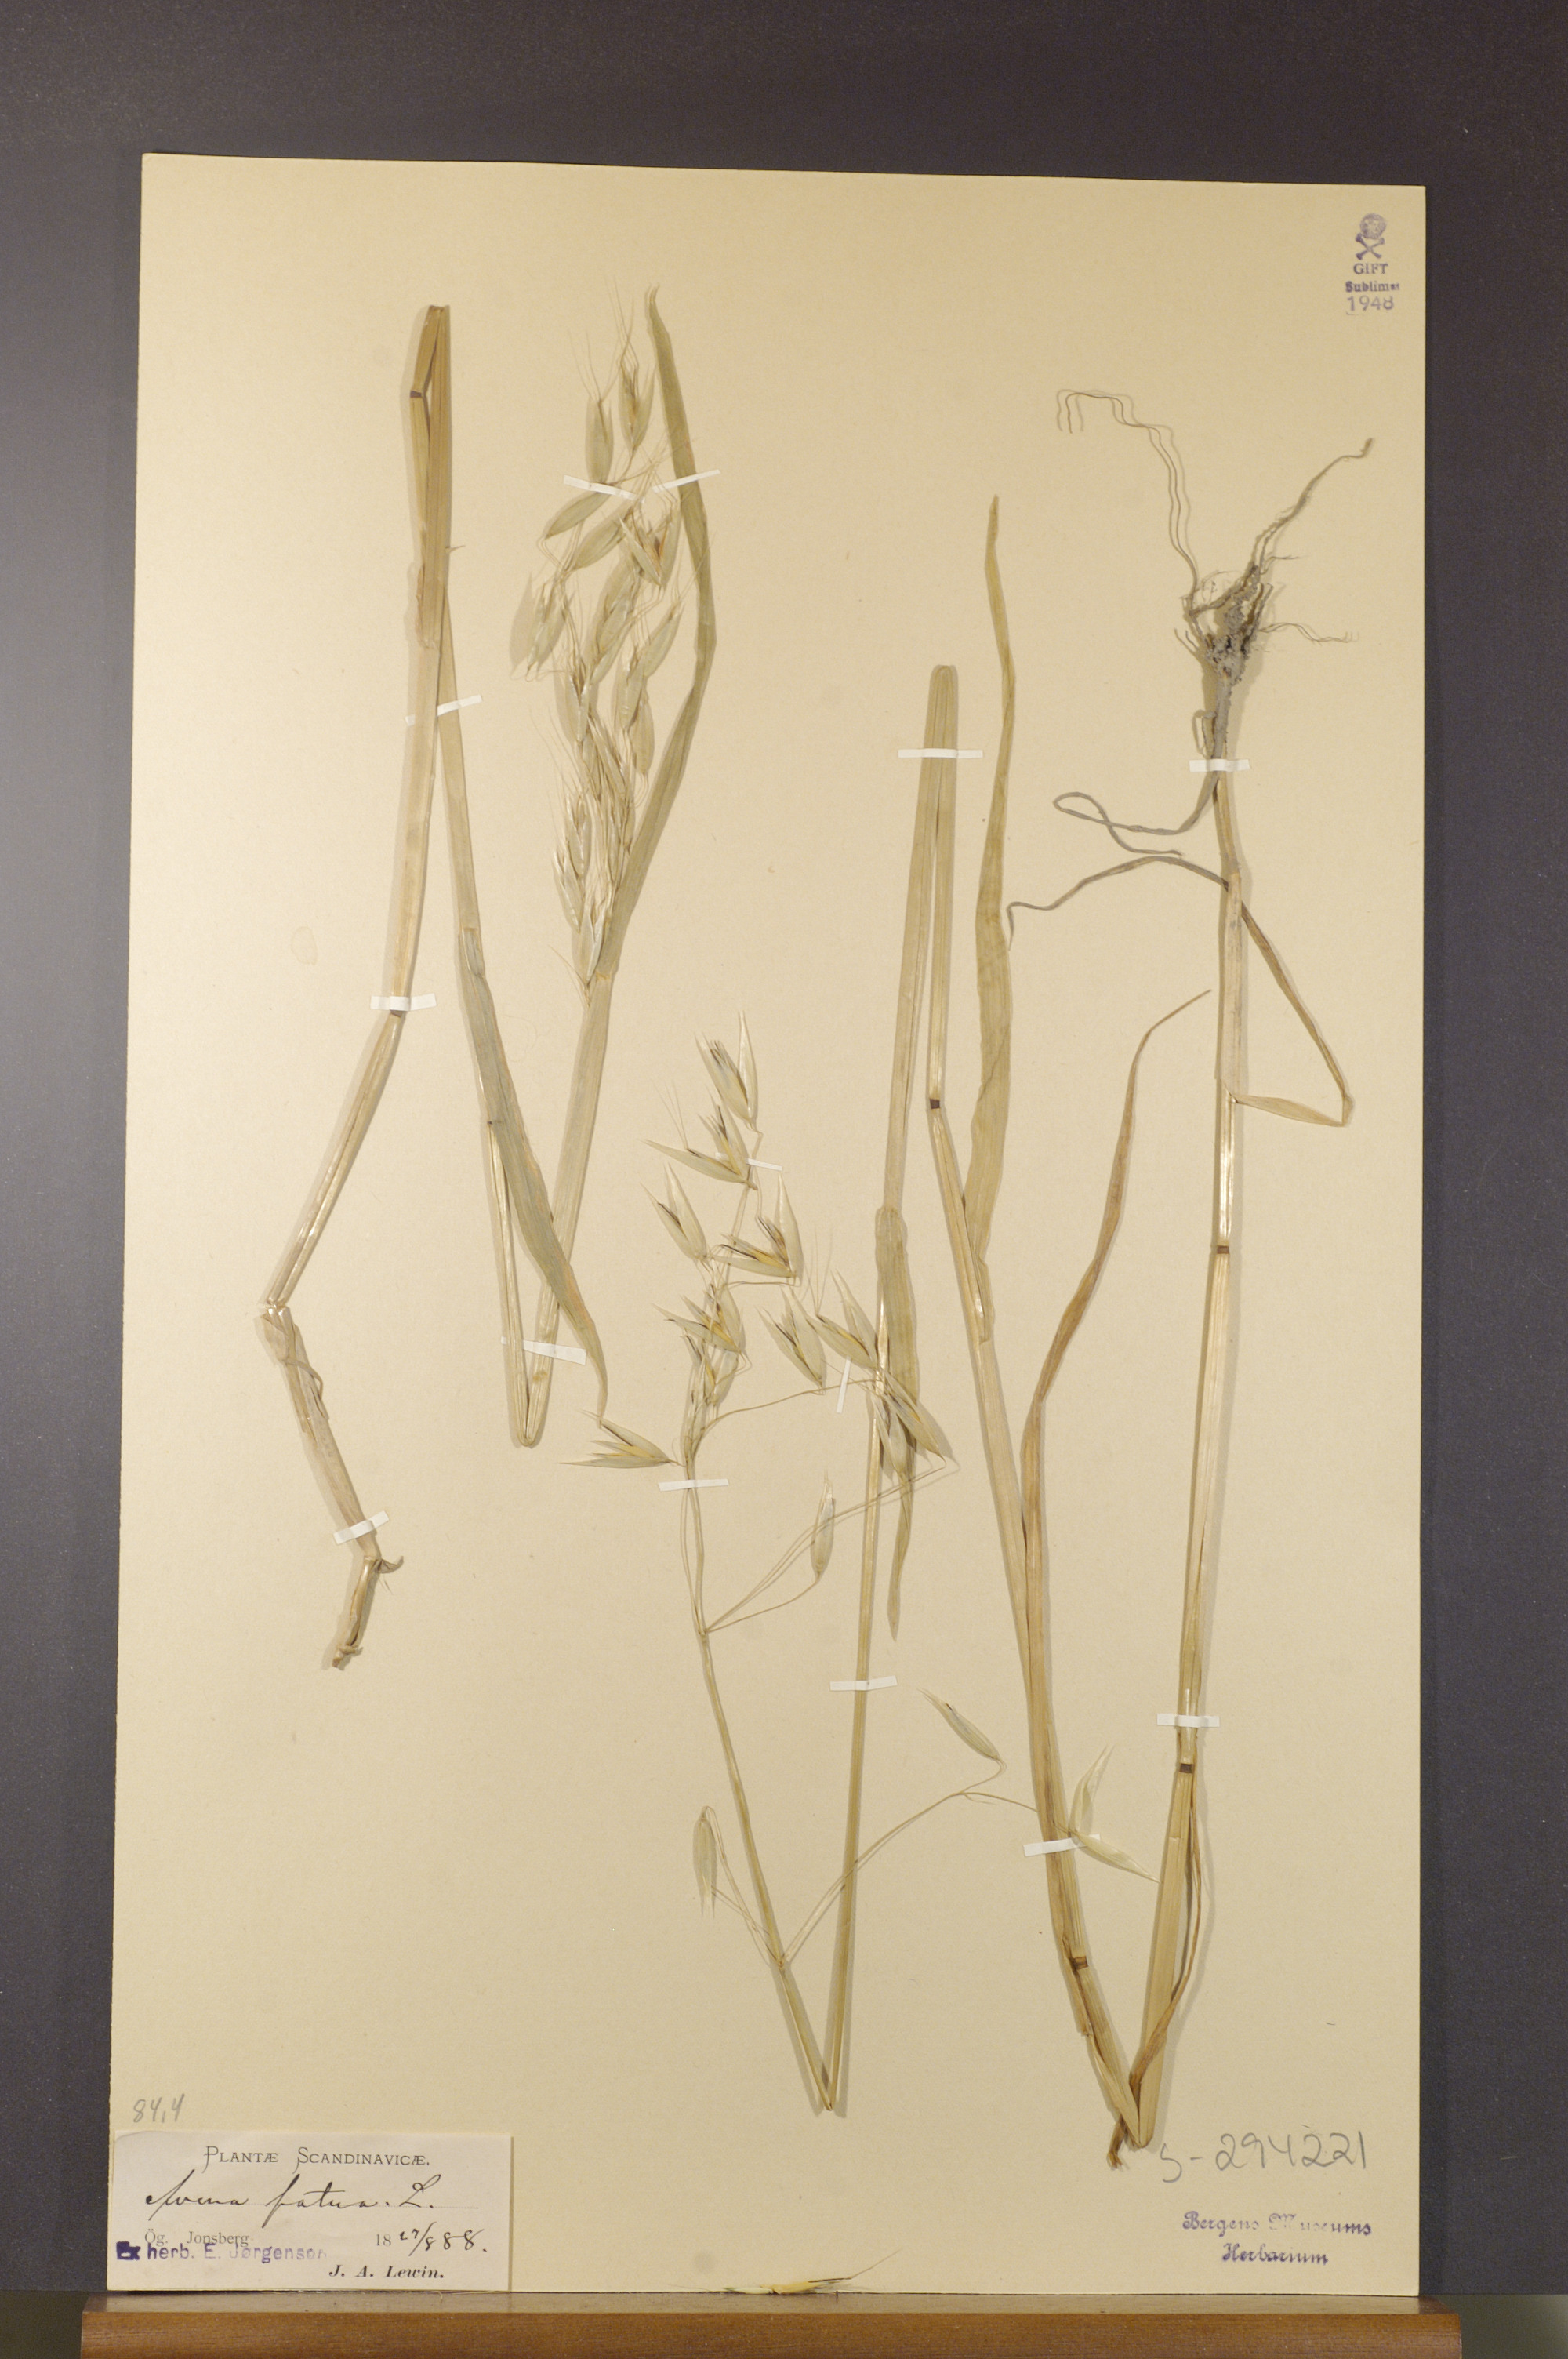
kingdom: Plantae
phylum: Tracheophyta
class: Liliopsida
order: Poales
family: Poaceae
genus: Avena
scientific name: Avena fatua
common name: Wild oat
